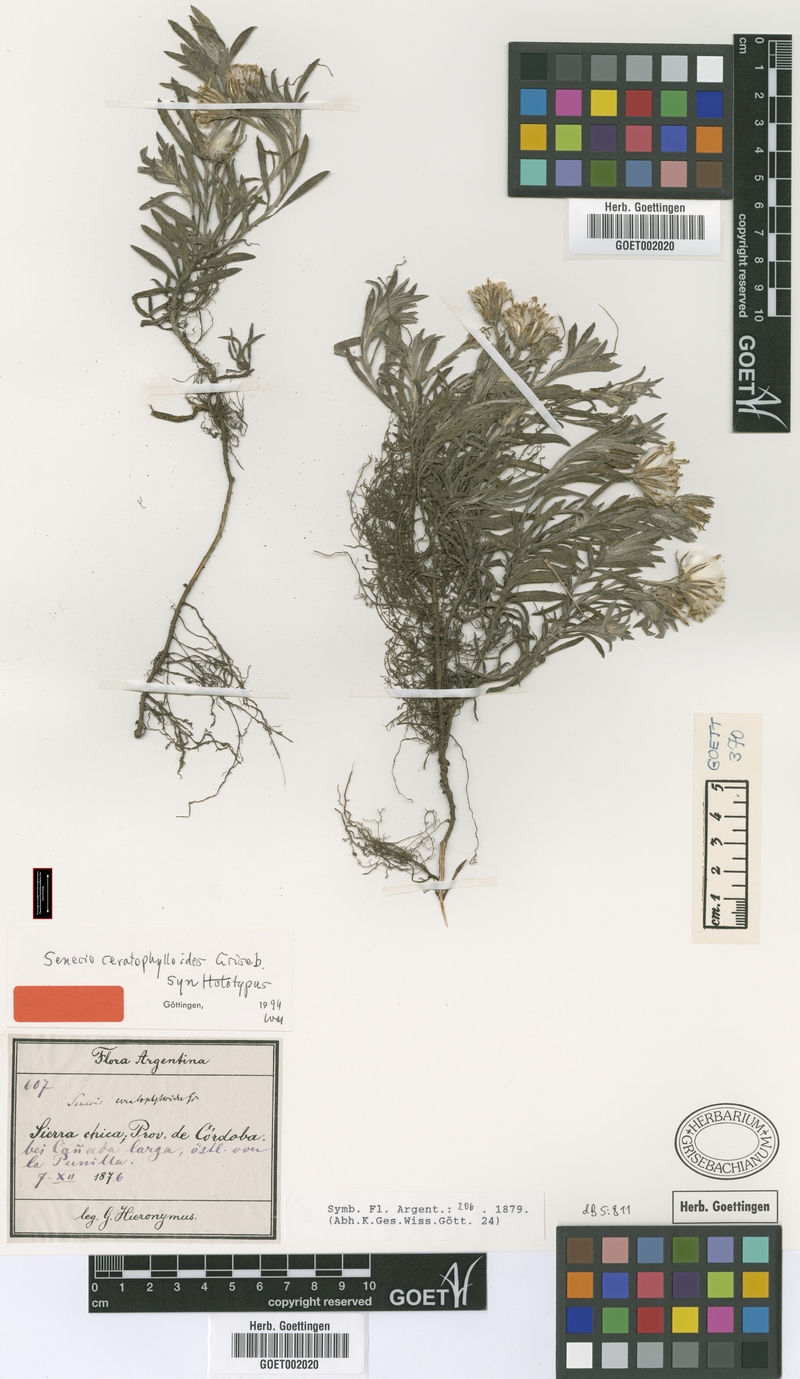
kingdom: Plantae
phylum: Tracheophyta
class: Magnoliopsida
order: Asterales
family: Asteraceae
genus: Senecio
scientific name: Senecio ceratophylloides
